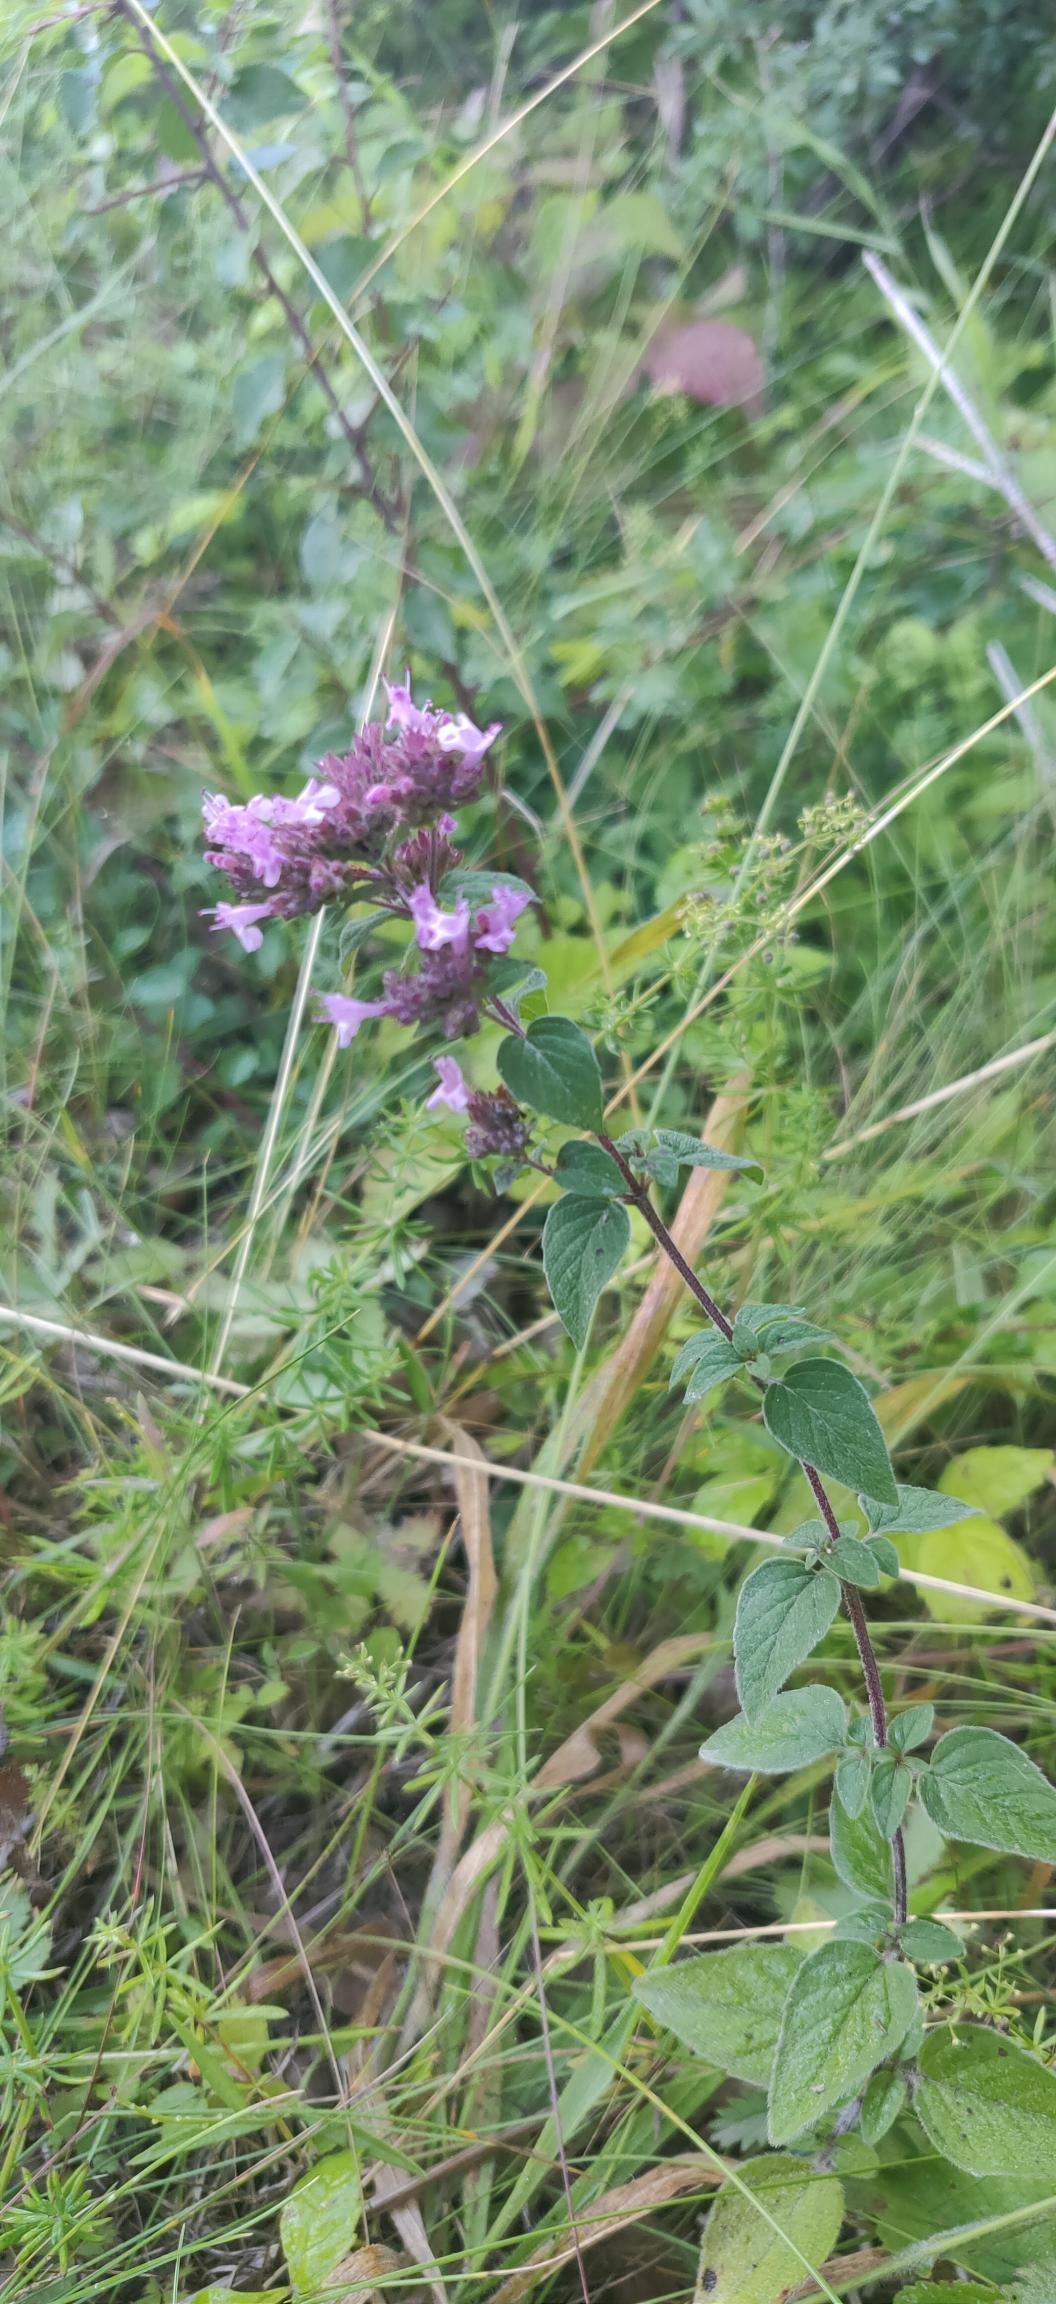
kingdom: Plantae
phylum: Tracheophyta
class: Magnoliopsida
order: Lamiales
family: Lamiaceae
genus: Origanum
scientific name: Origanum vulgare
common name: Merian
